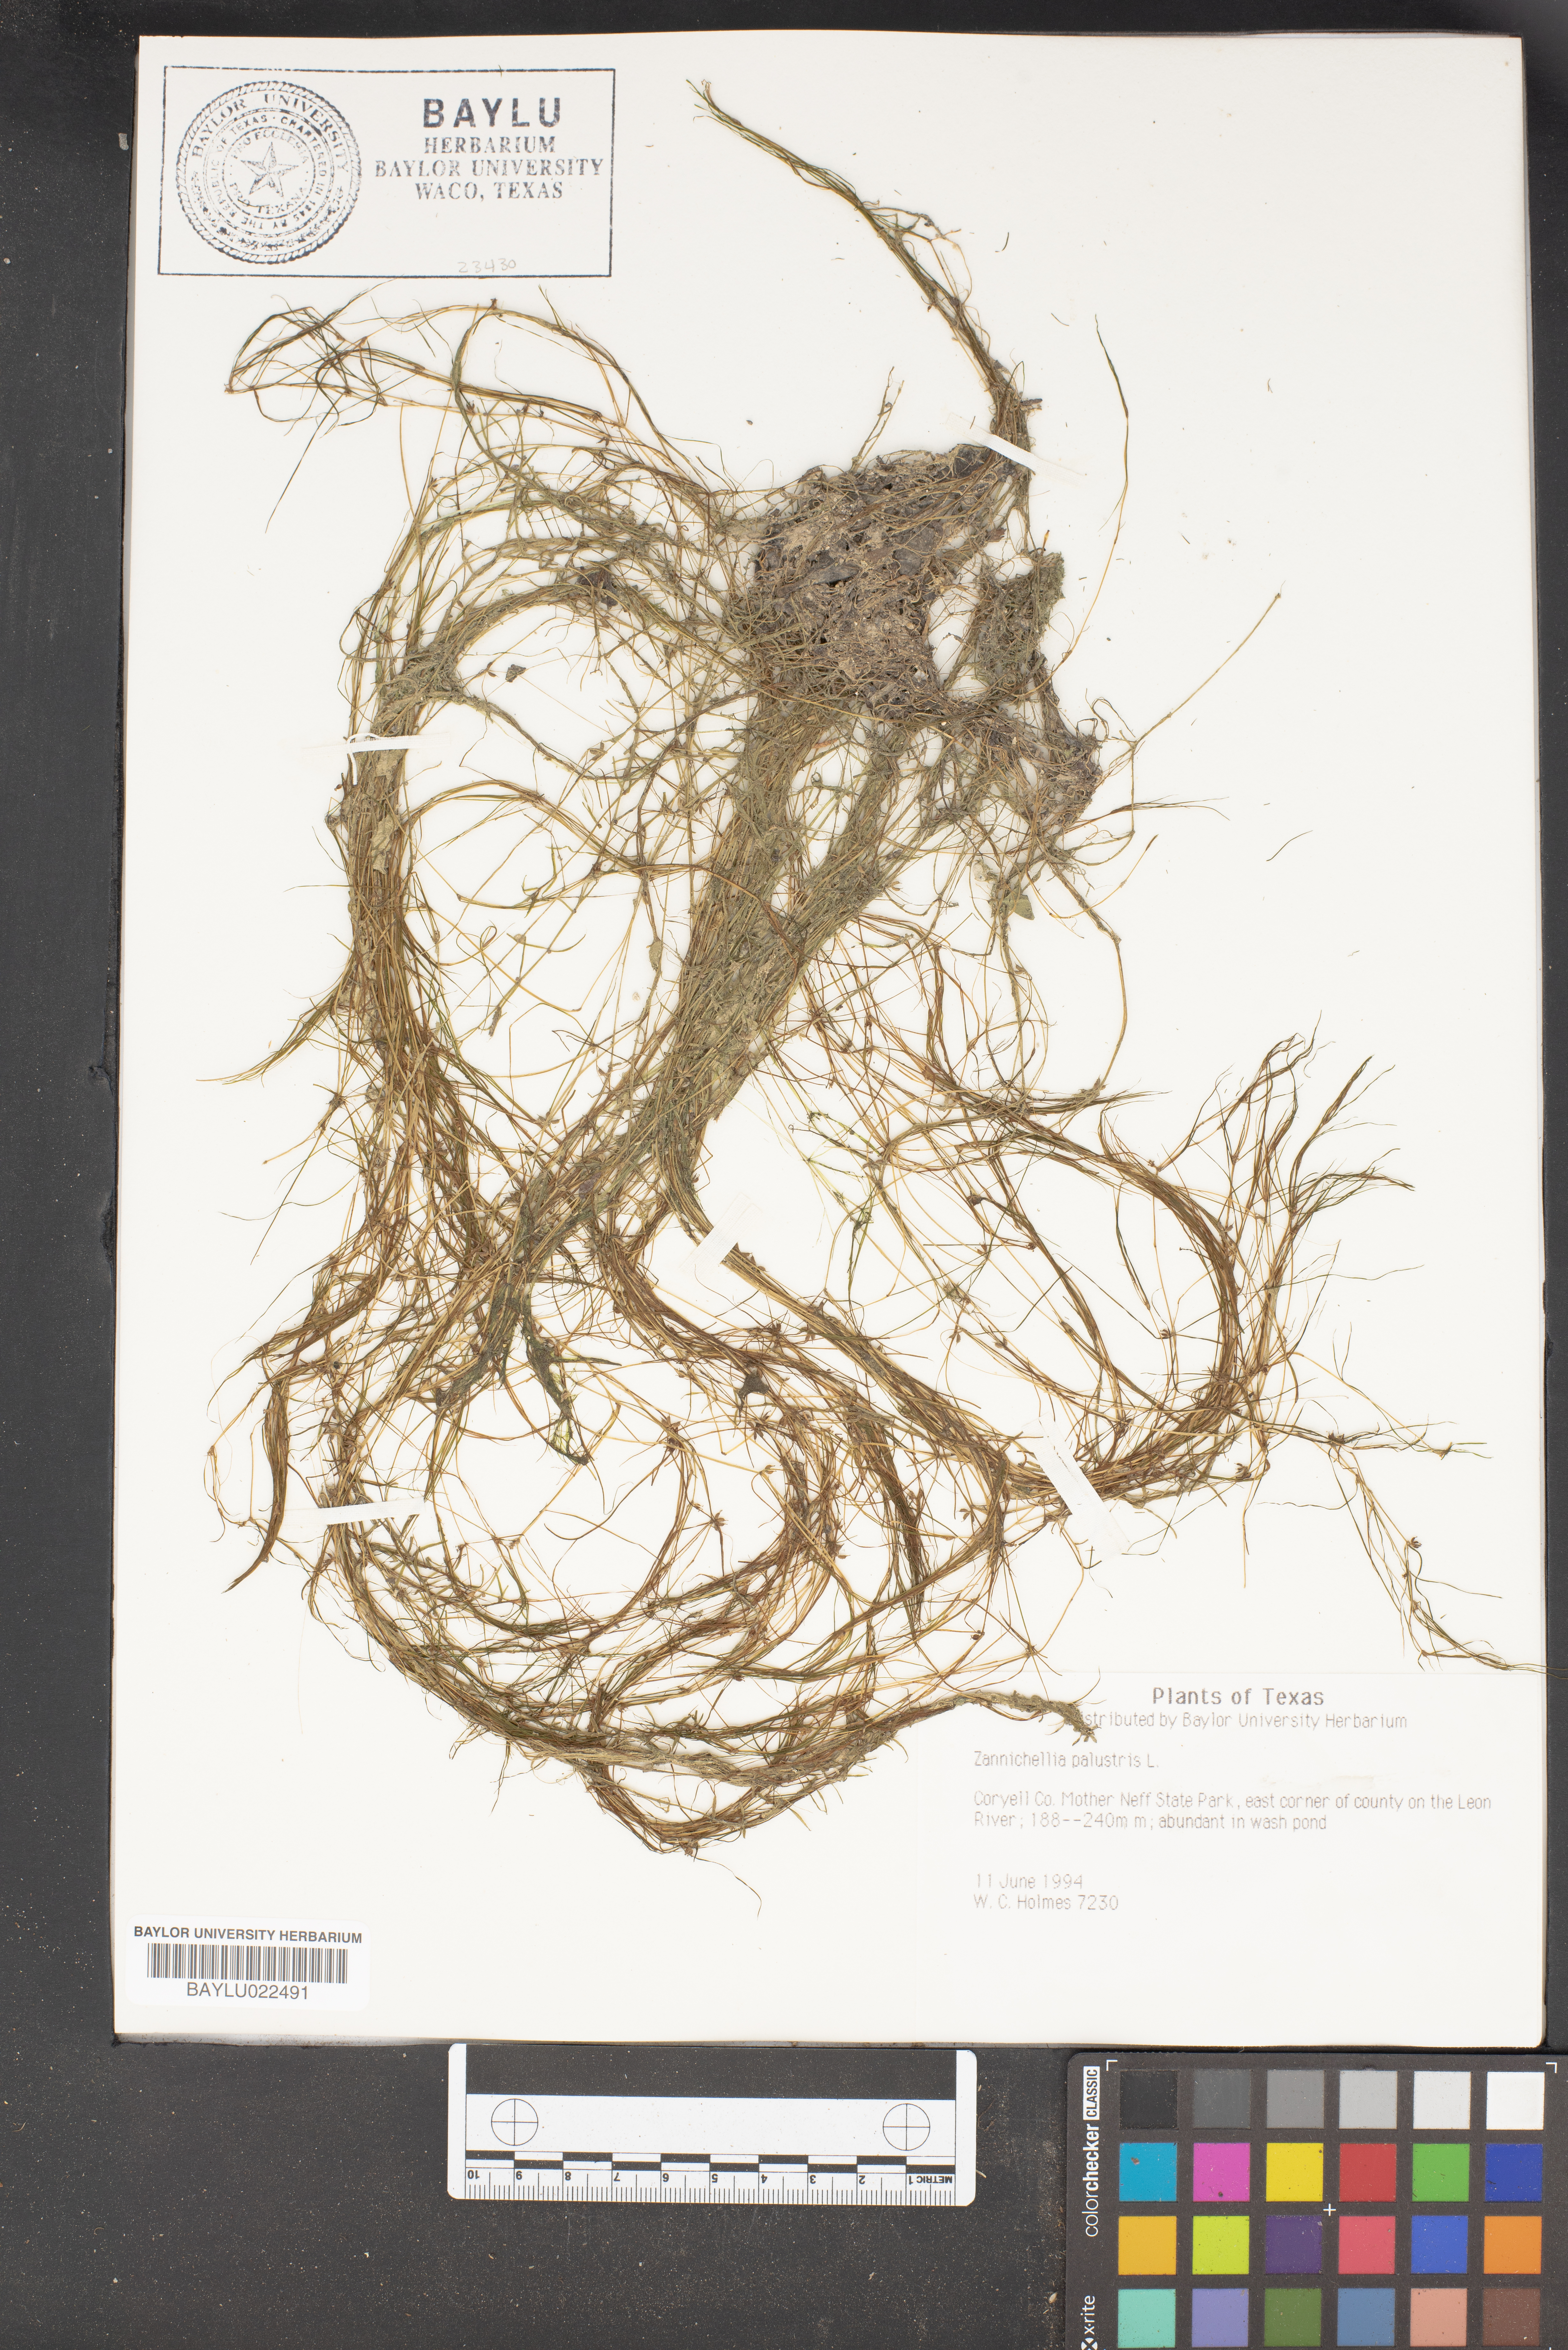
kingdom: Plantae
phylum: Tracheophyta
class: Liliopsida
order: Alismatales
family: Potamogetonaceae
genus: Zannichellia
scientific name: Zannichellia palustris
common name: Horned pondweed
